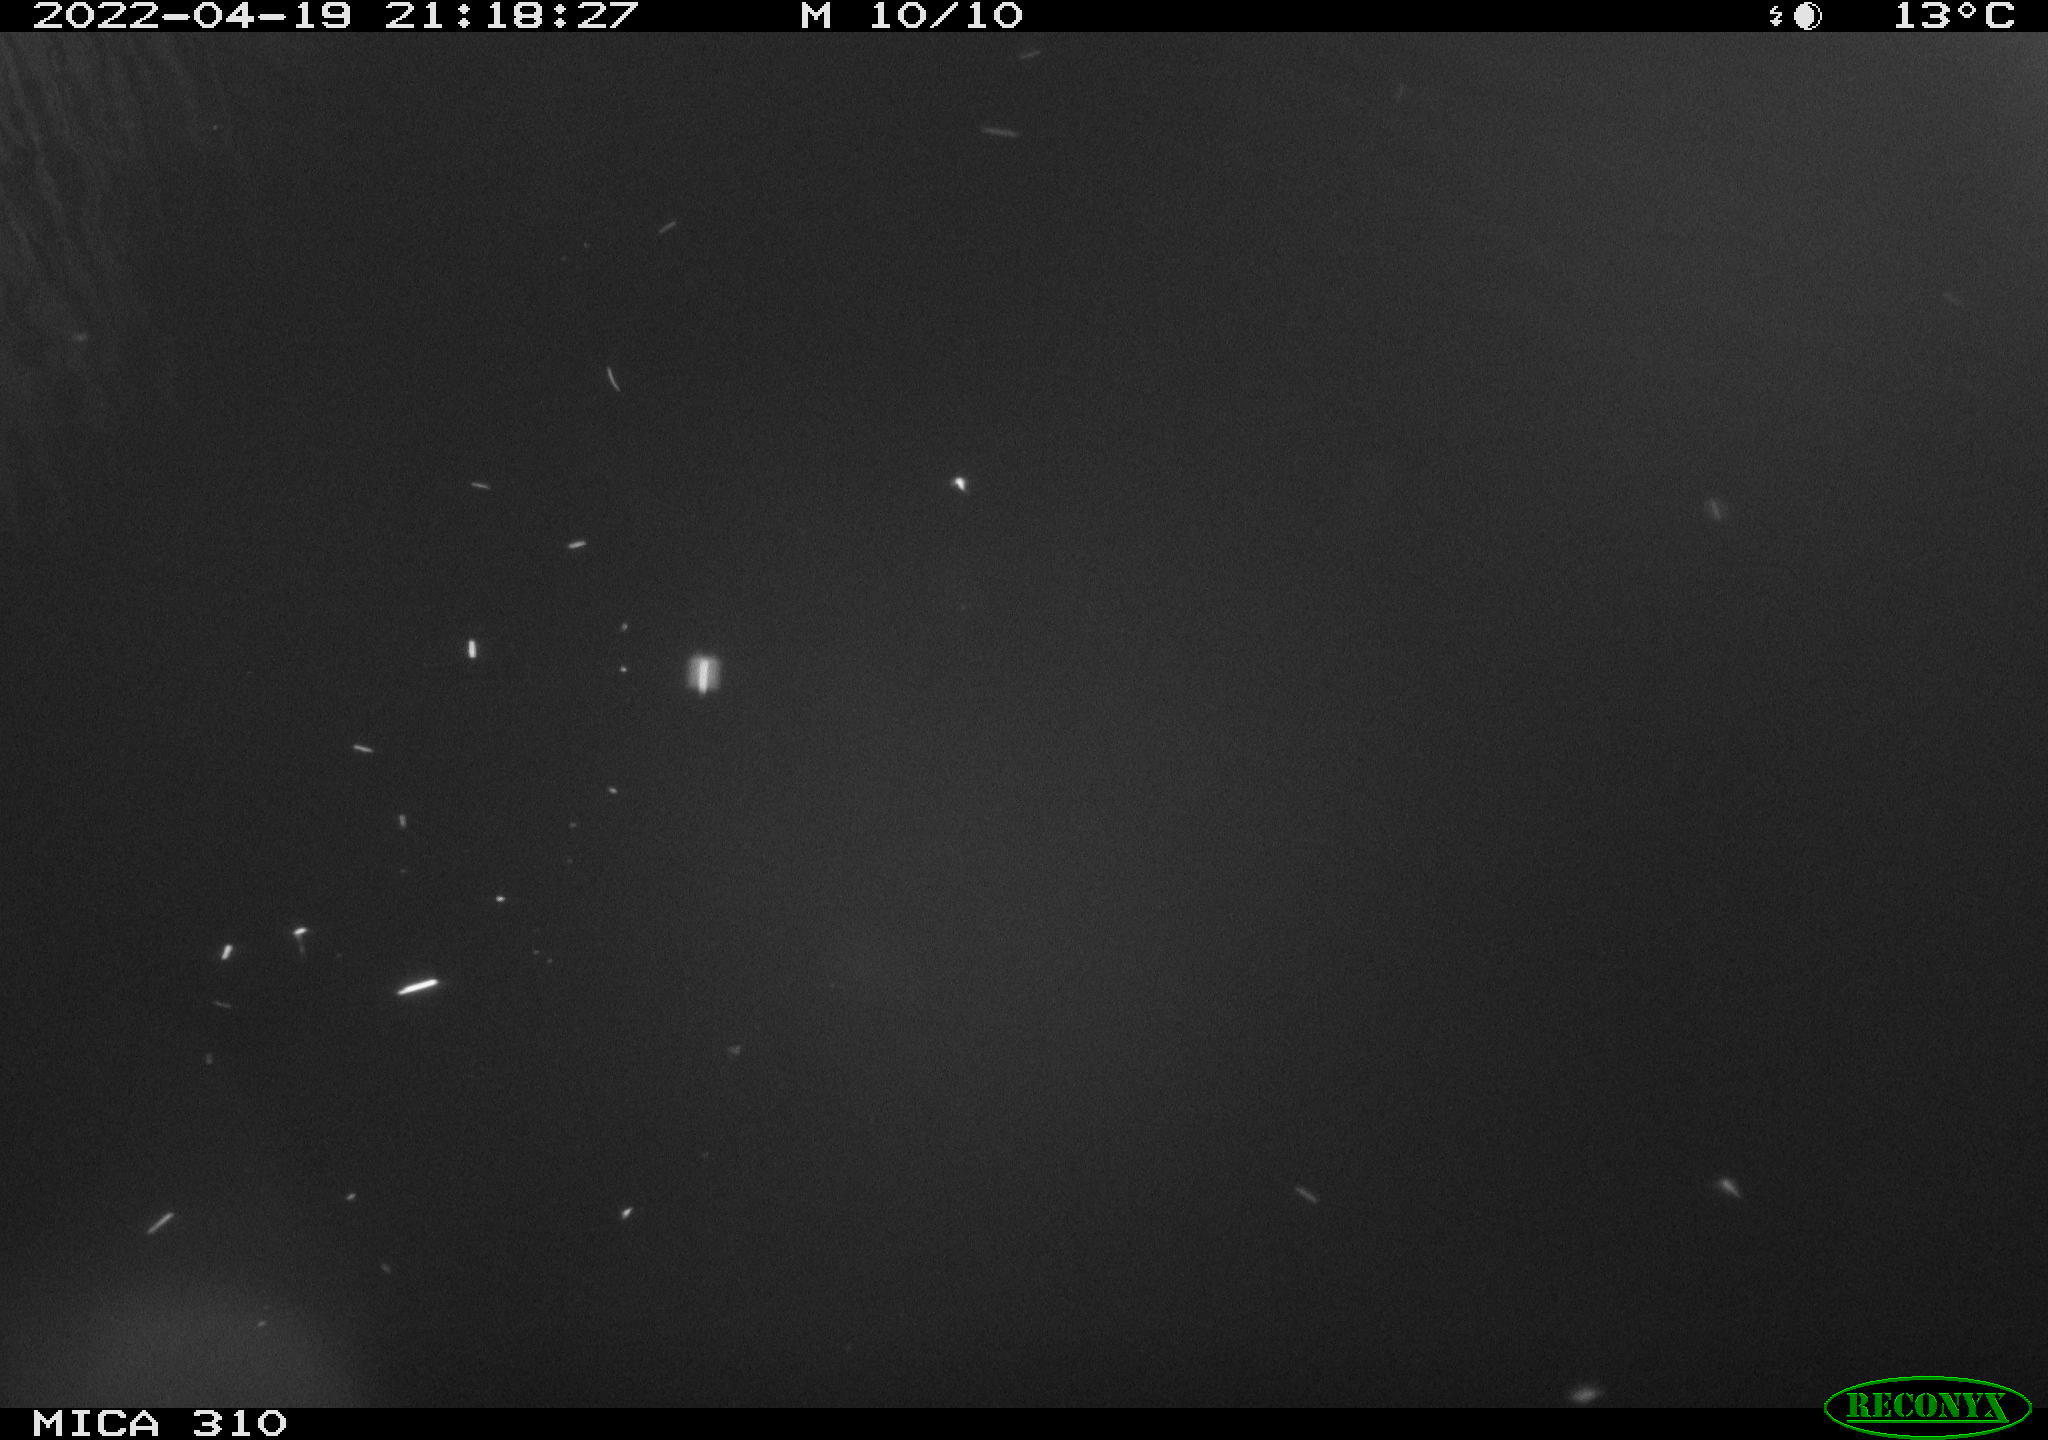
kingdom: Animalia
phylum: Chordata
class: Aves
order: Anseriformes
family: Anatidae
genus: Anas
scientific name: Anas platyrhynchos
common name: Mallard
